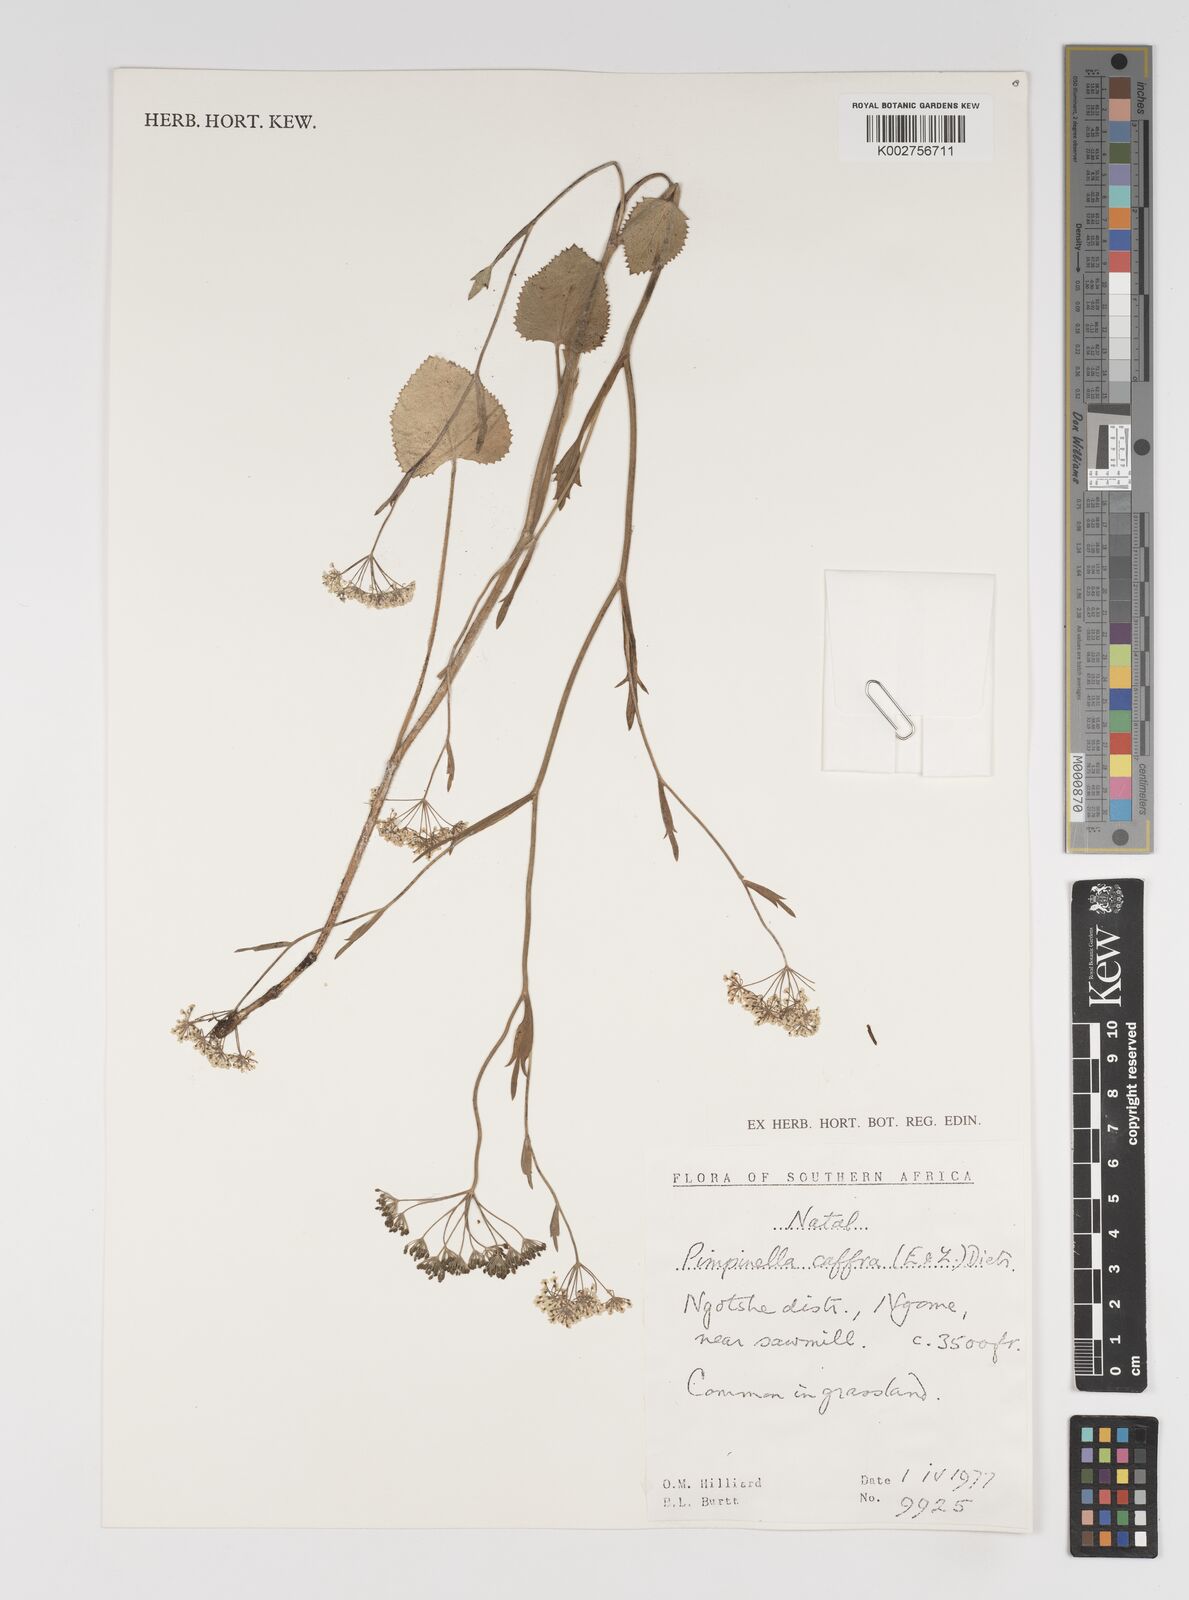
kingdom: Plantae
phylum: Tracheophyta
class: Magnoliopsida
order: Apiales
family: Apiaceae
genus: Pimpinella
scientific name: Pimpinella
